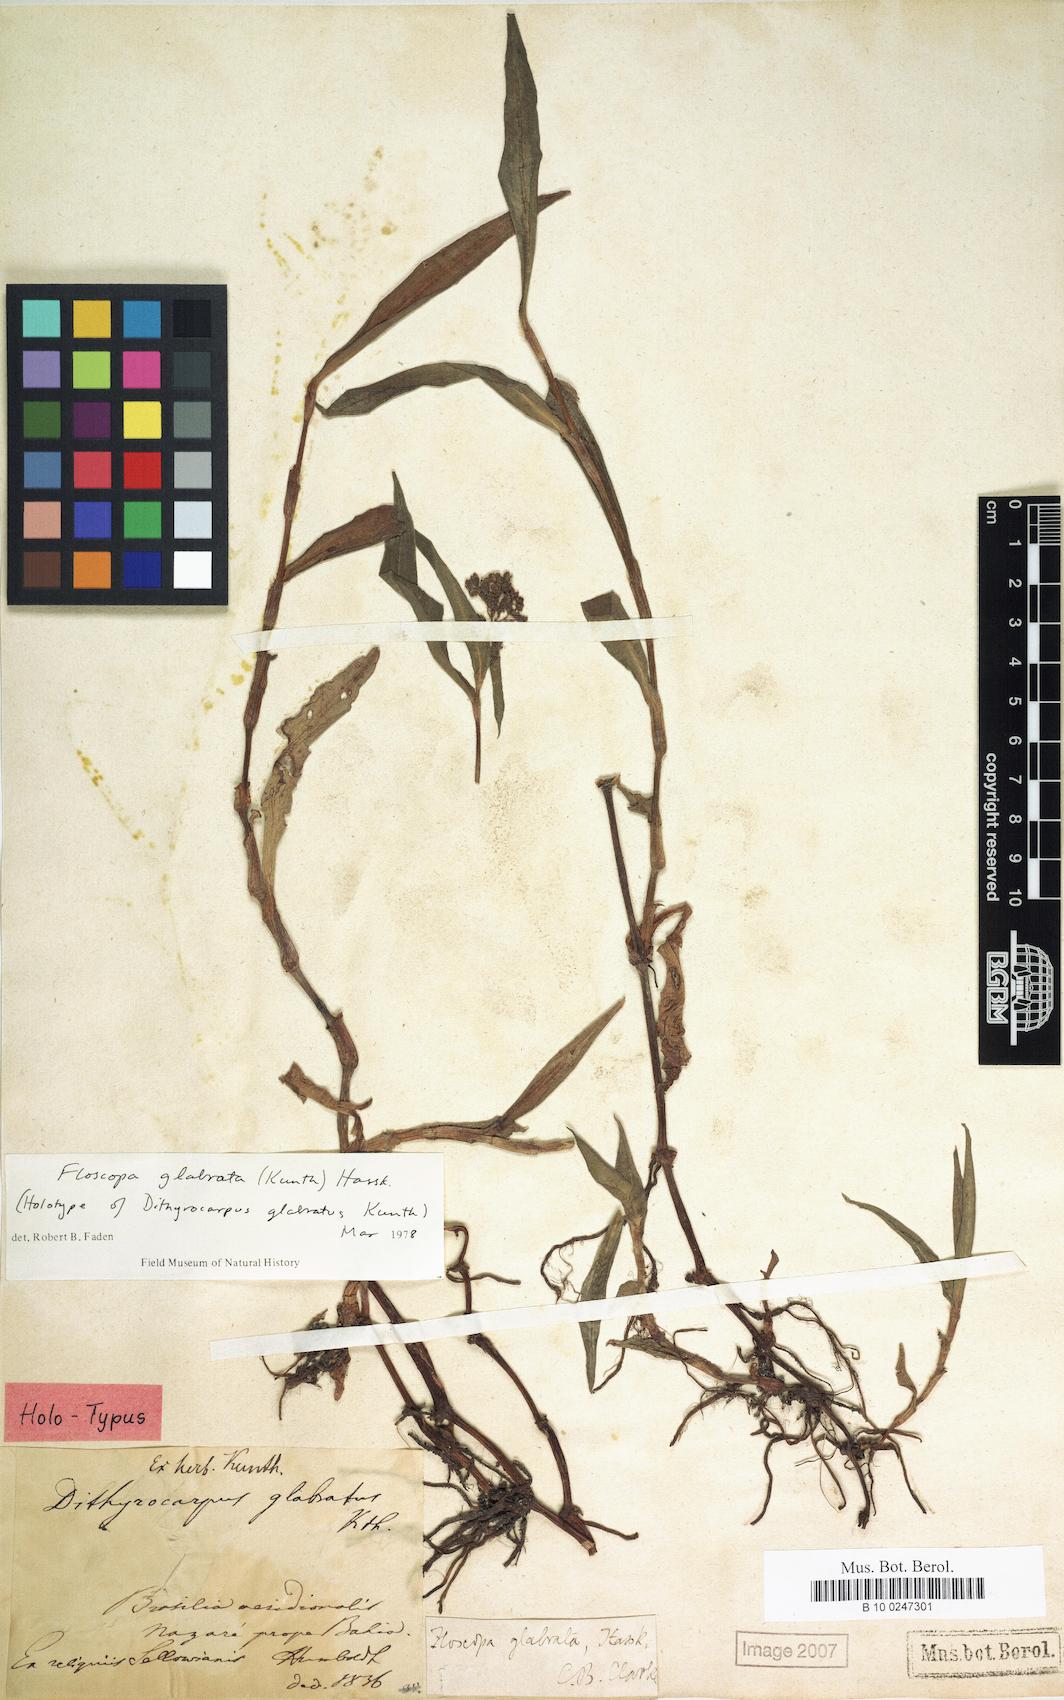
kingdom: Plantae
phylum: Tracheophyta
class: Liliopsida
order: Commelinales
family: Commelinaceae
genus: Floscopa
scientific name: Floscopa glabrata
